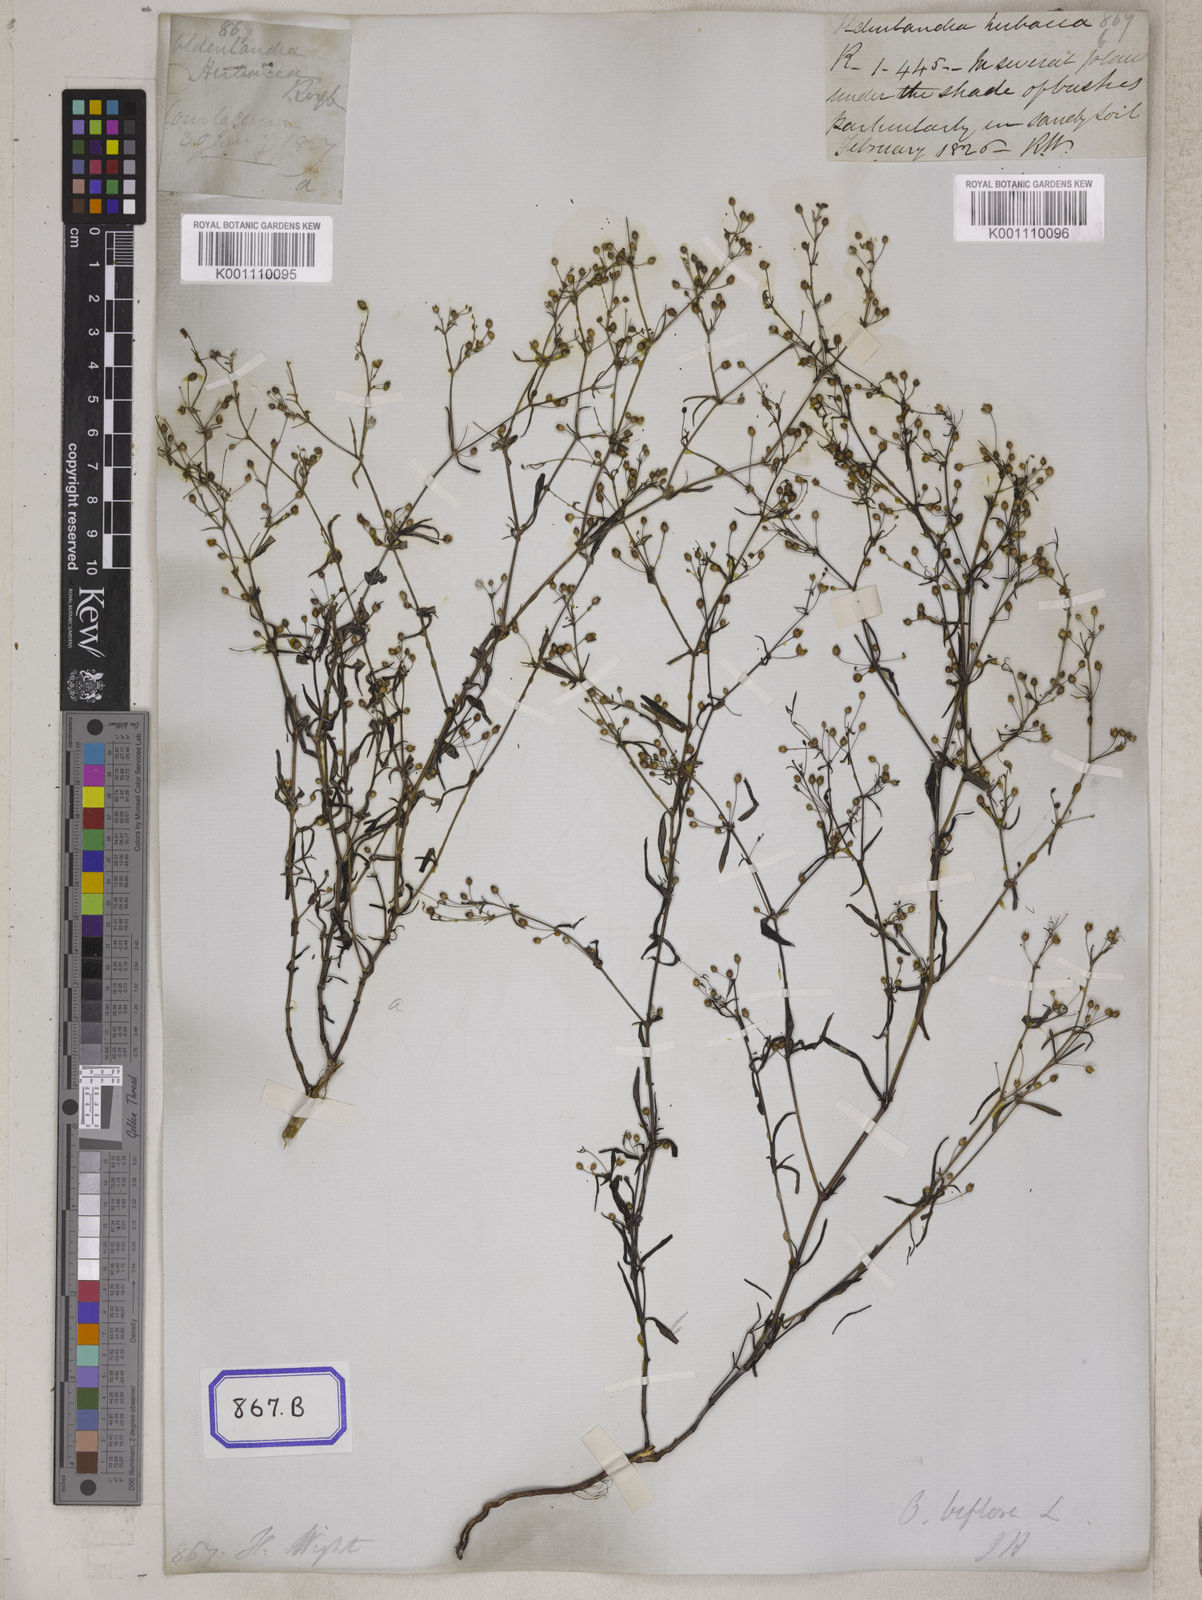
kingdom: Plantae
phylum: Tracheophyta
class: Magnoliopsida
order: Gentianales
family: Rubiaceae
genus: Hedyotis
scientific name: Hedyotis
